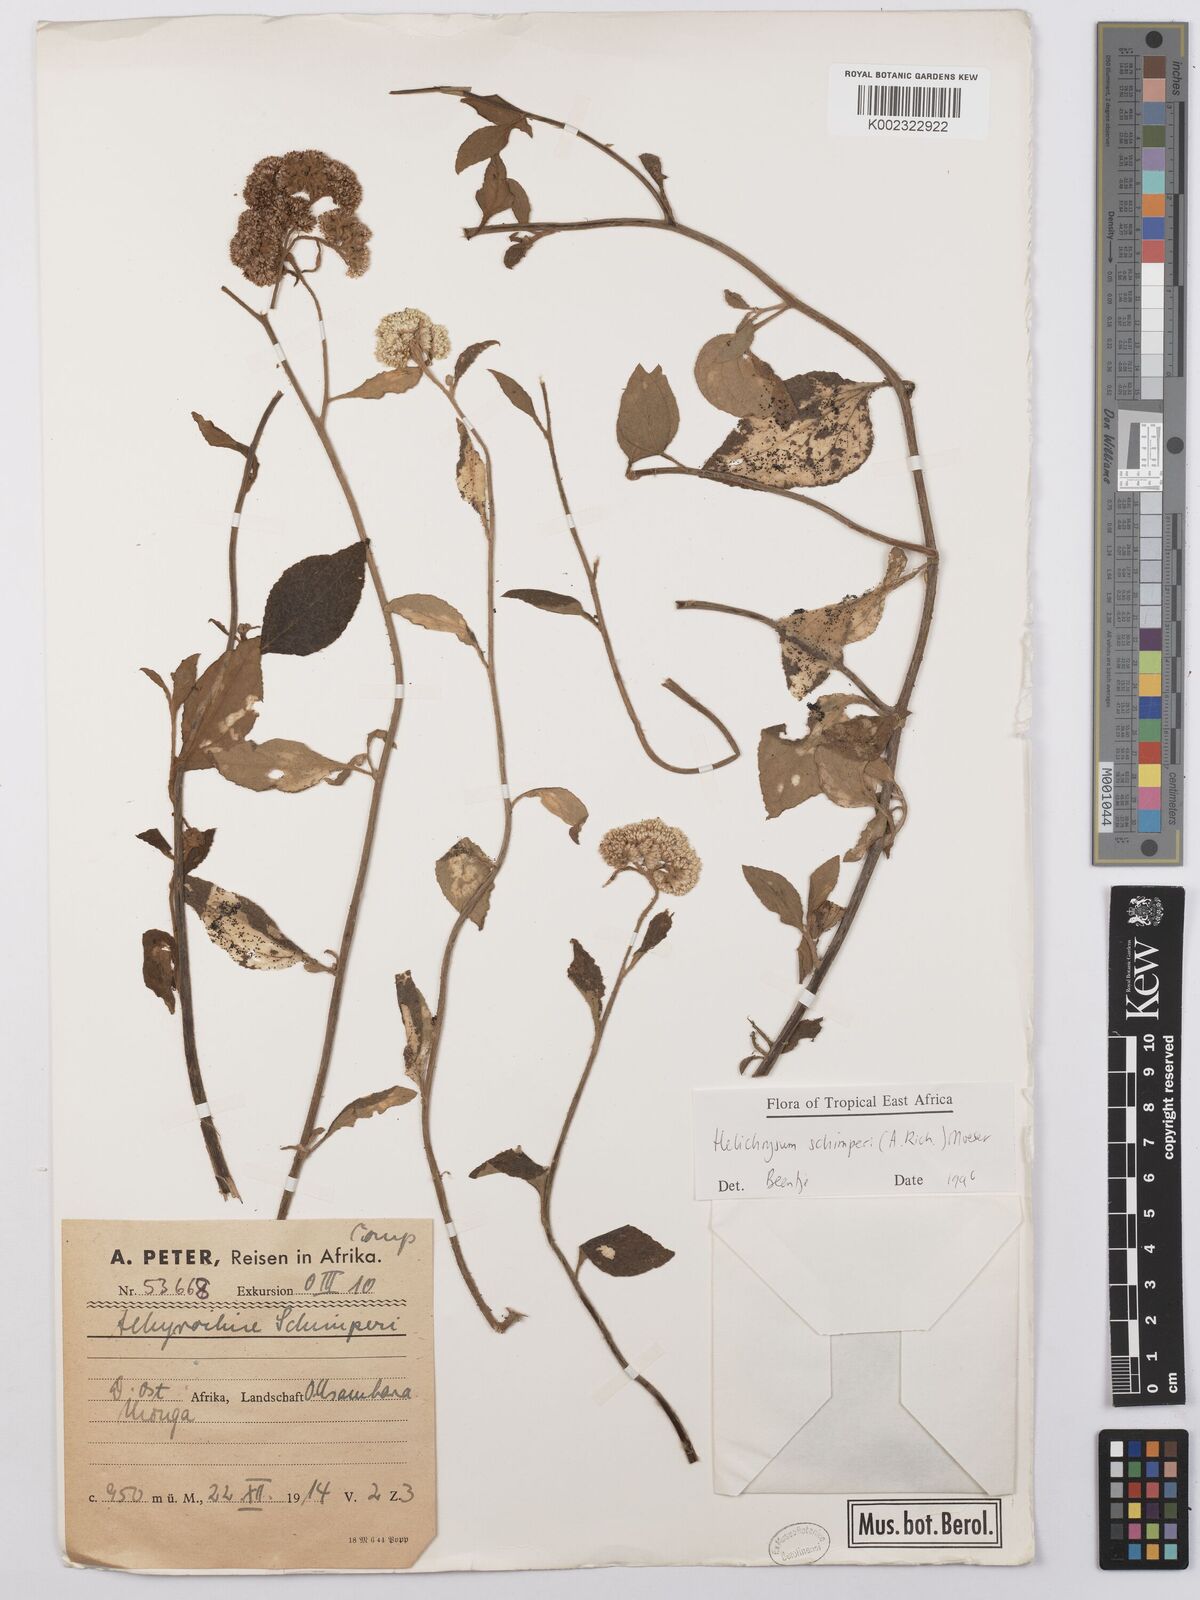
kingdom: Plantae
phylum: Tracheophyta
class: Magnoliopsida
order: Asterales
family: Asteraceae
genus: Helichrysum
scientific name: Helichrysum schimperi
